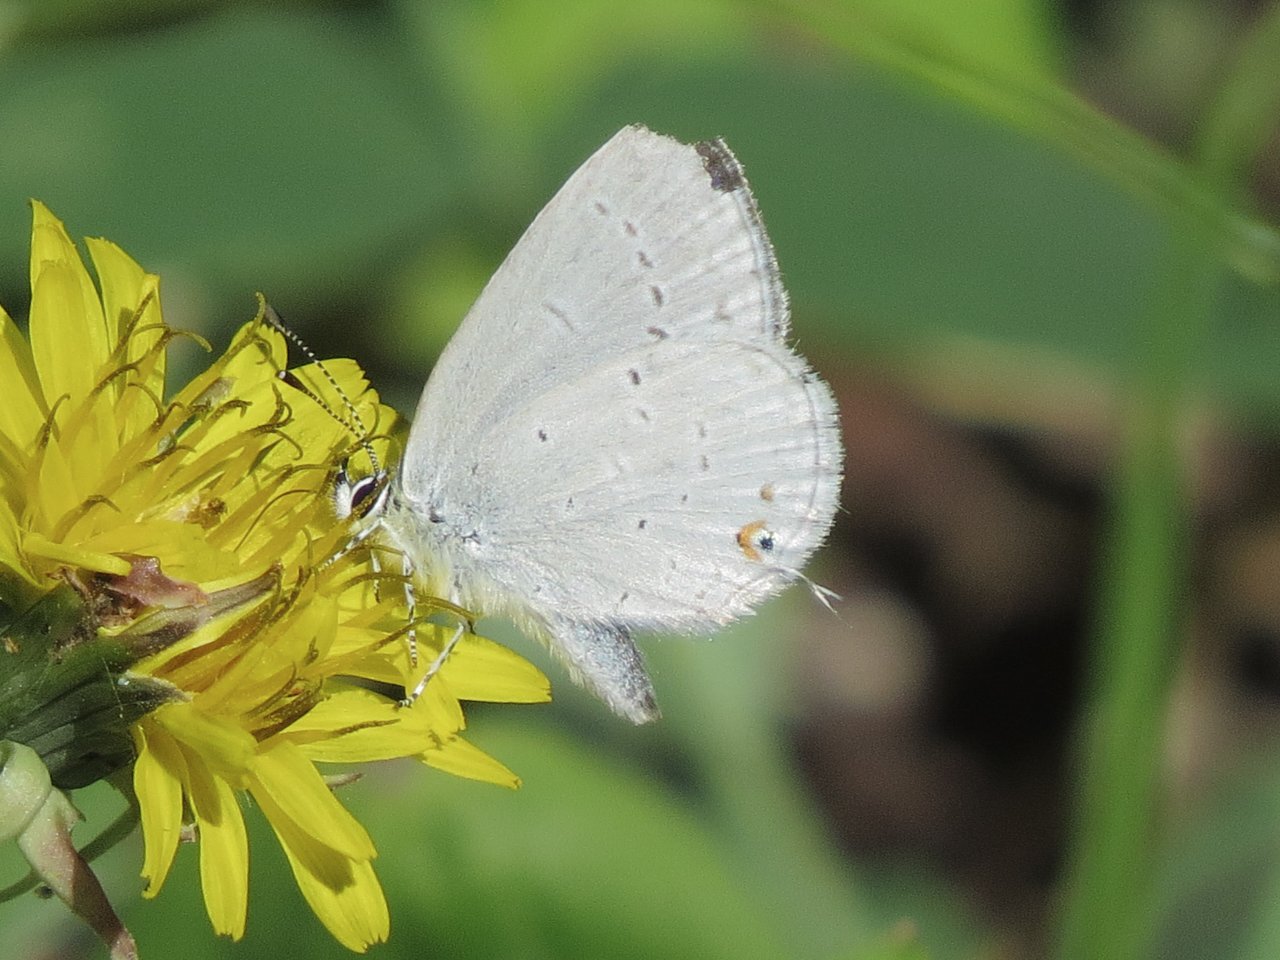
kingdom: Animalia
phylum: Arthropoda
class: Insecta
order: Lepidoptera
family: Lycaenidae
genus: Elkalyce
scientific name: Elkalyce amyntula
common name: Western Tailed-Blue
